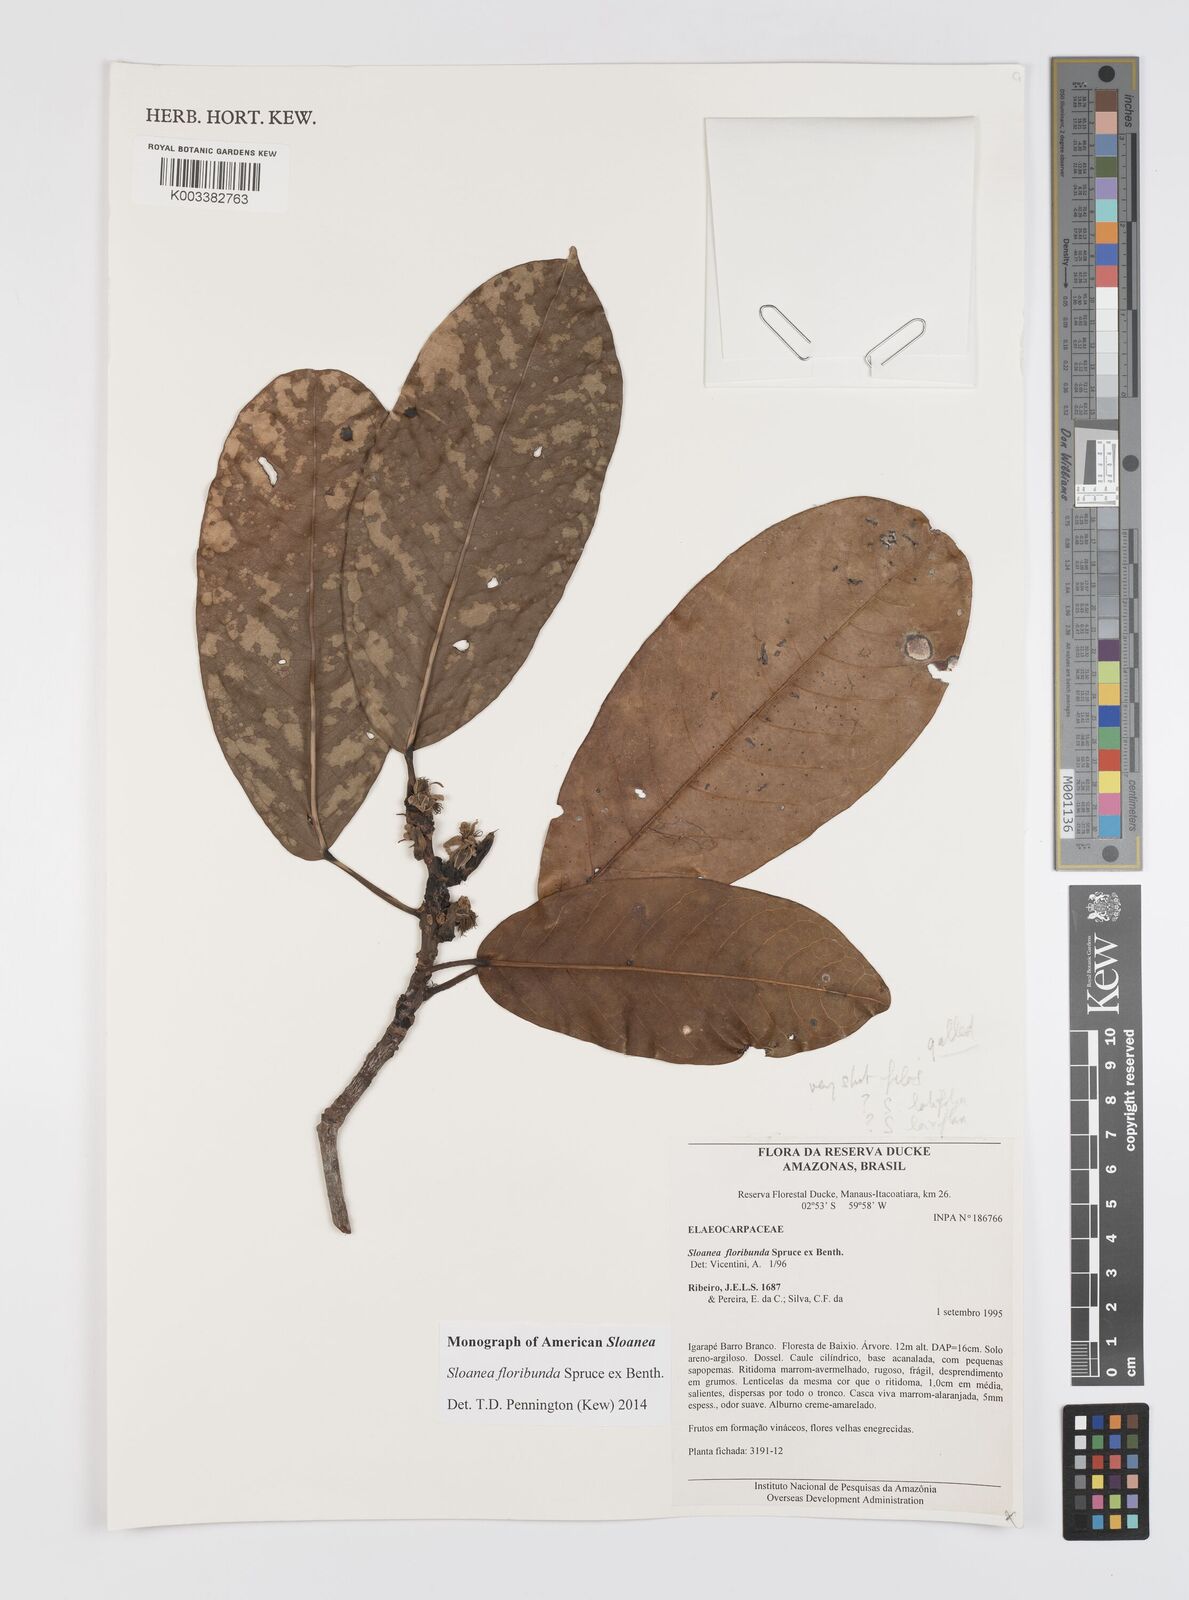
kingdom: Plantae
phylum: Tracheophyta
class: Magnoliopsida
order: Oxalidales
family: Elaeocarpaceae
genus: Sloanea
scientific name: Sloanea floribunda
